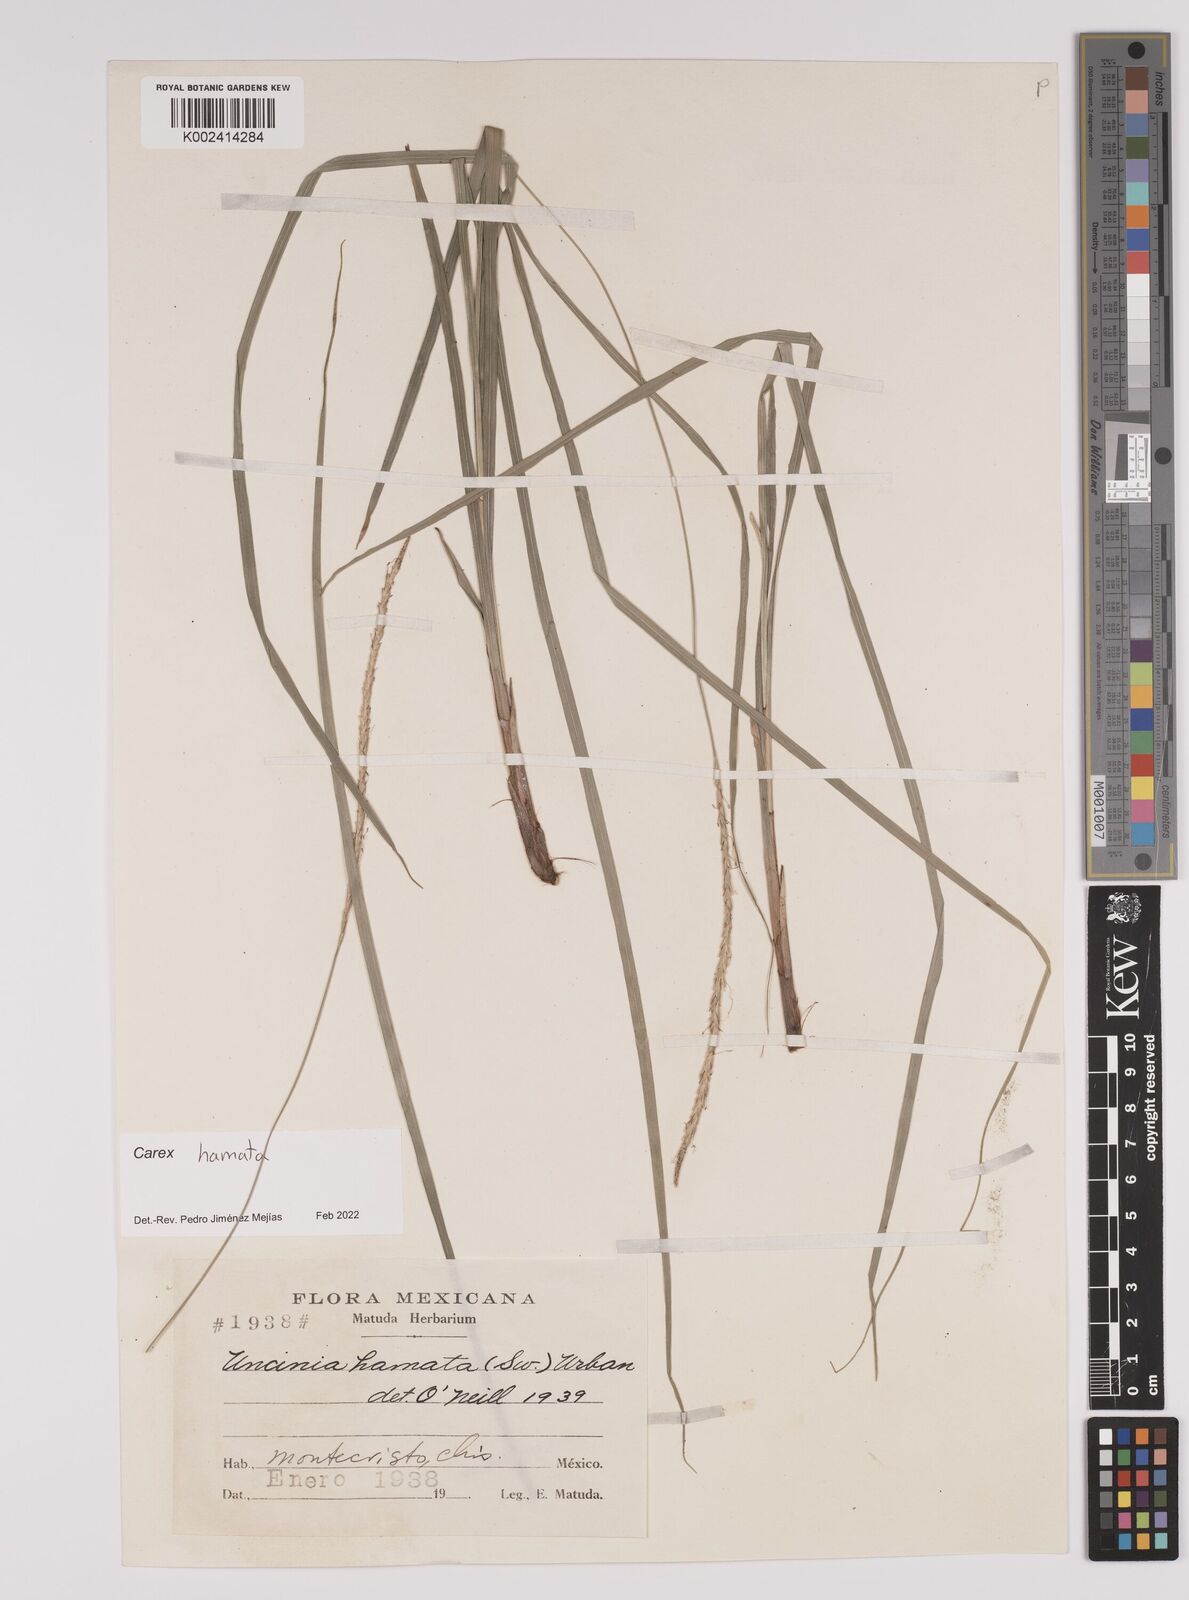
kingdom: Plantae
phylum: Tracheophyta
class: Liliopsida
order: Poales
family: Cyperaceae
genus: Carex
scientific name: Carex hamata
